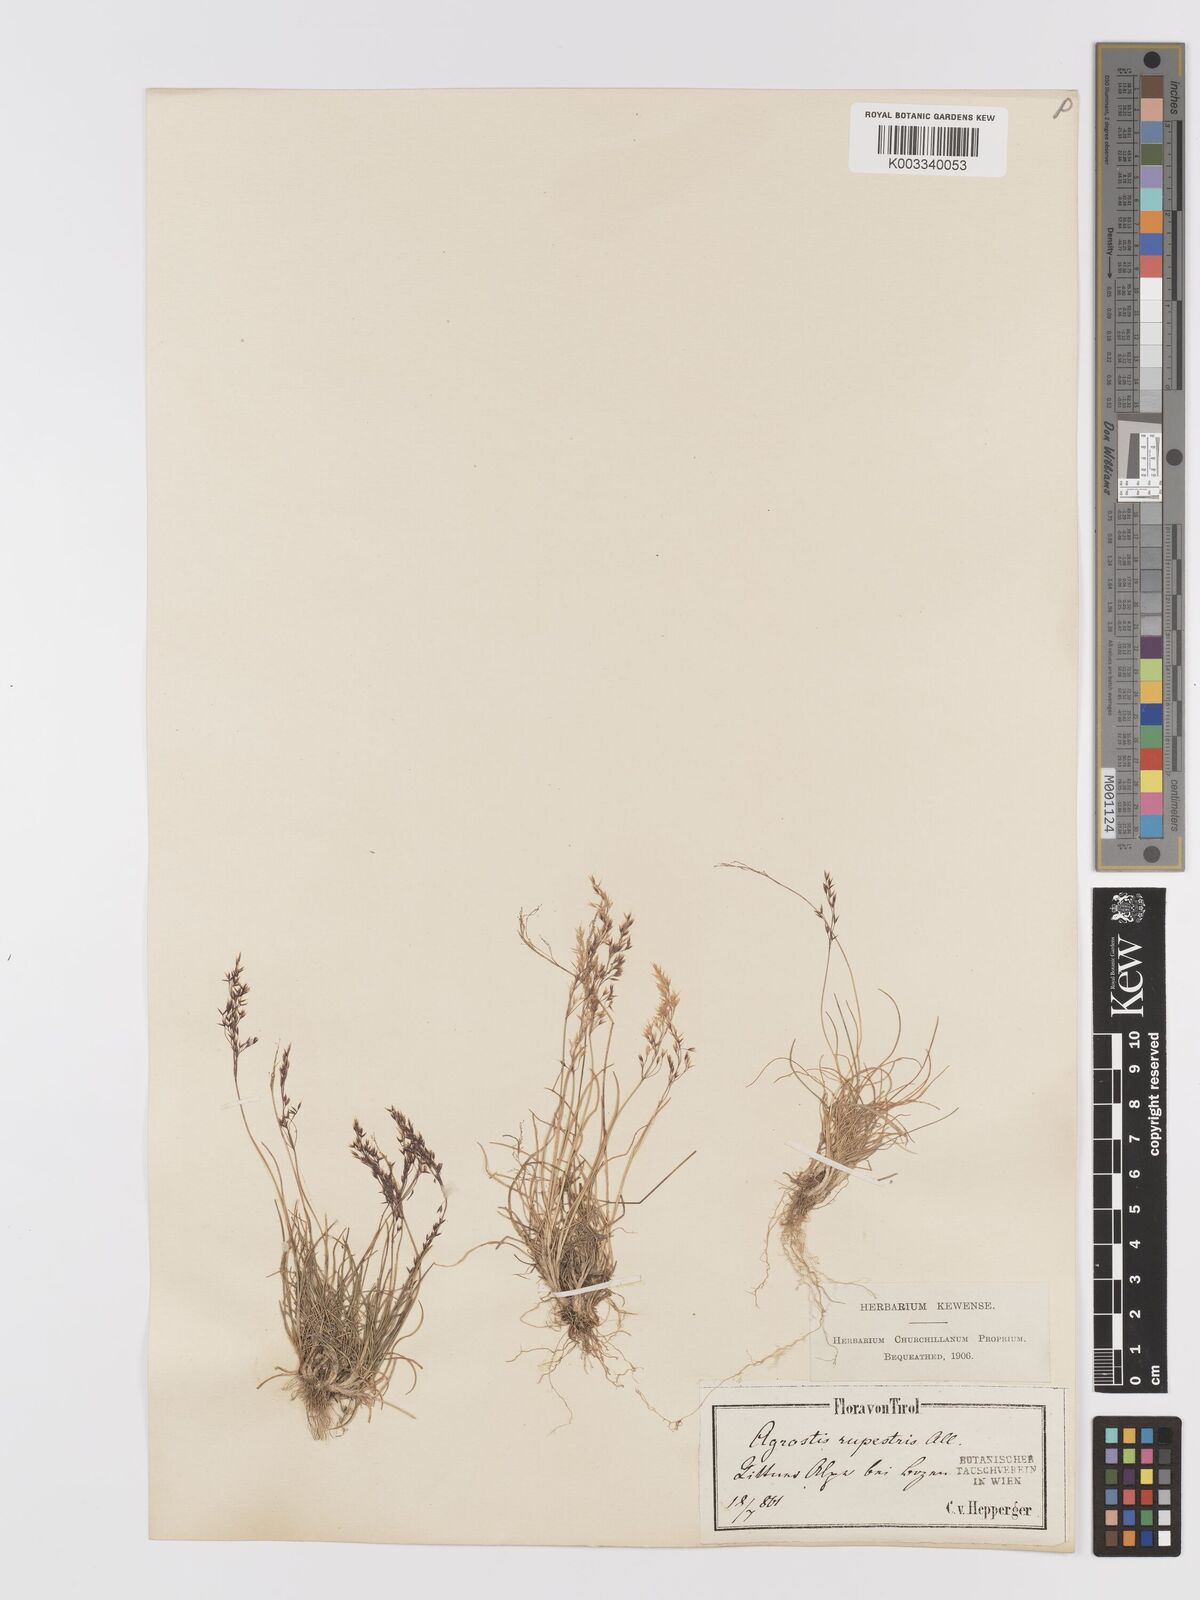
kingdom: Plantae
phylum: Tracheophyta
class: Liliopsida
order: Poales
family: Poaceae
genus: Agrostis
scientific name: Agrostis rupestris
